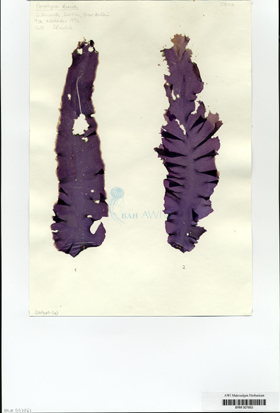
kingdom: Plantae
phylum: Rhodophyta
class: Bangiophyceae
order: Bangiales
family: Bangiaceae
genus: Porphyra
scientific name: Porphyra dioica
